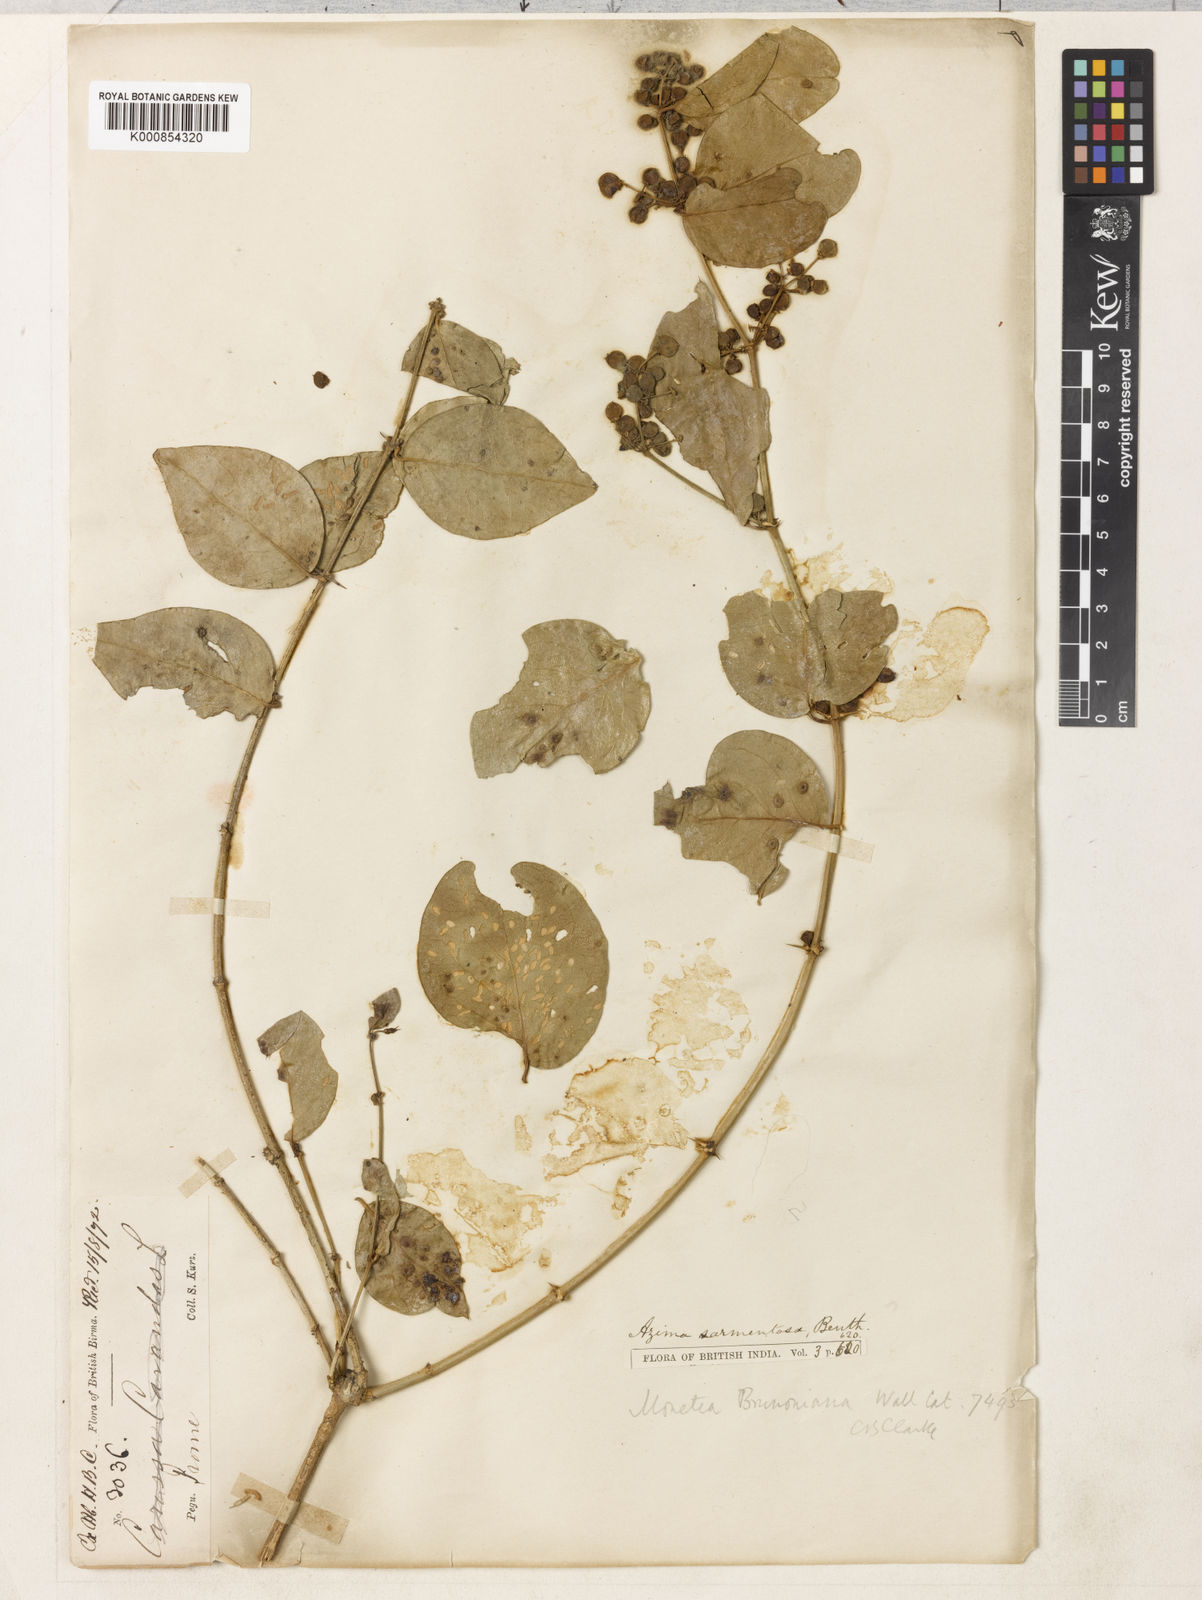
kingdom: Plantae
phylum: Tracheophyta
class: Magnoliopsida
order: Brassicales
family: Salvadoraceae
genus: Azima
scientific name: Azima sarmentosa
